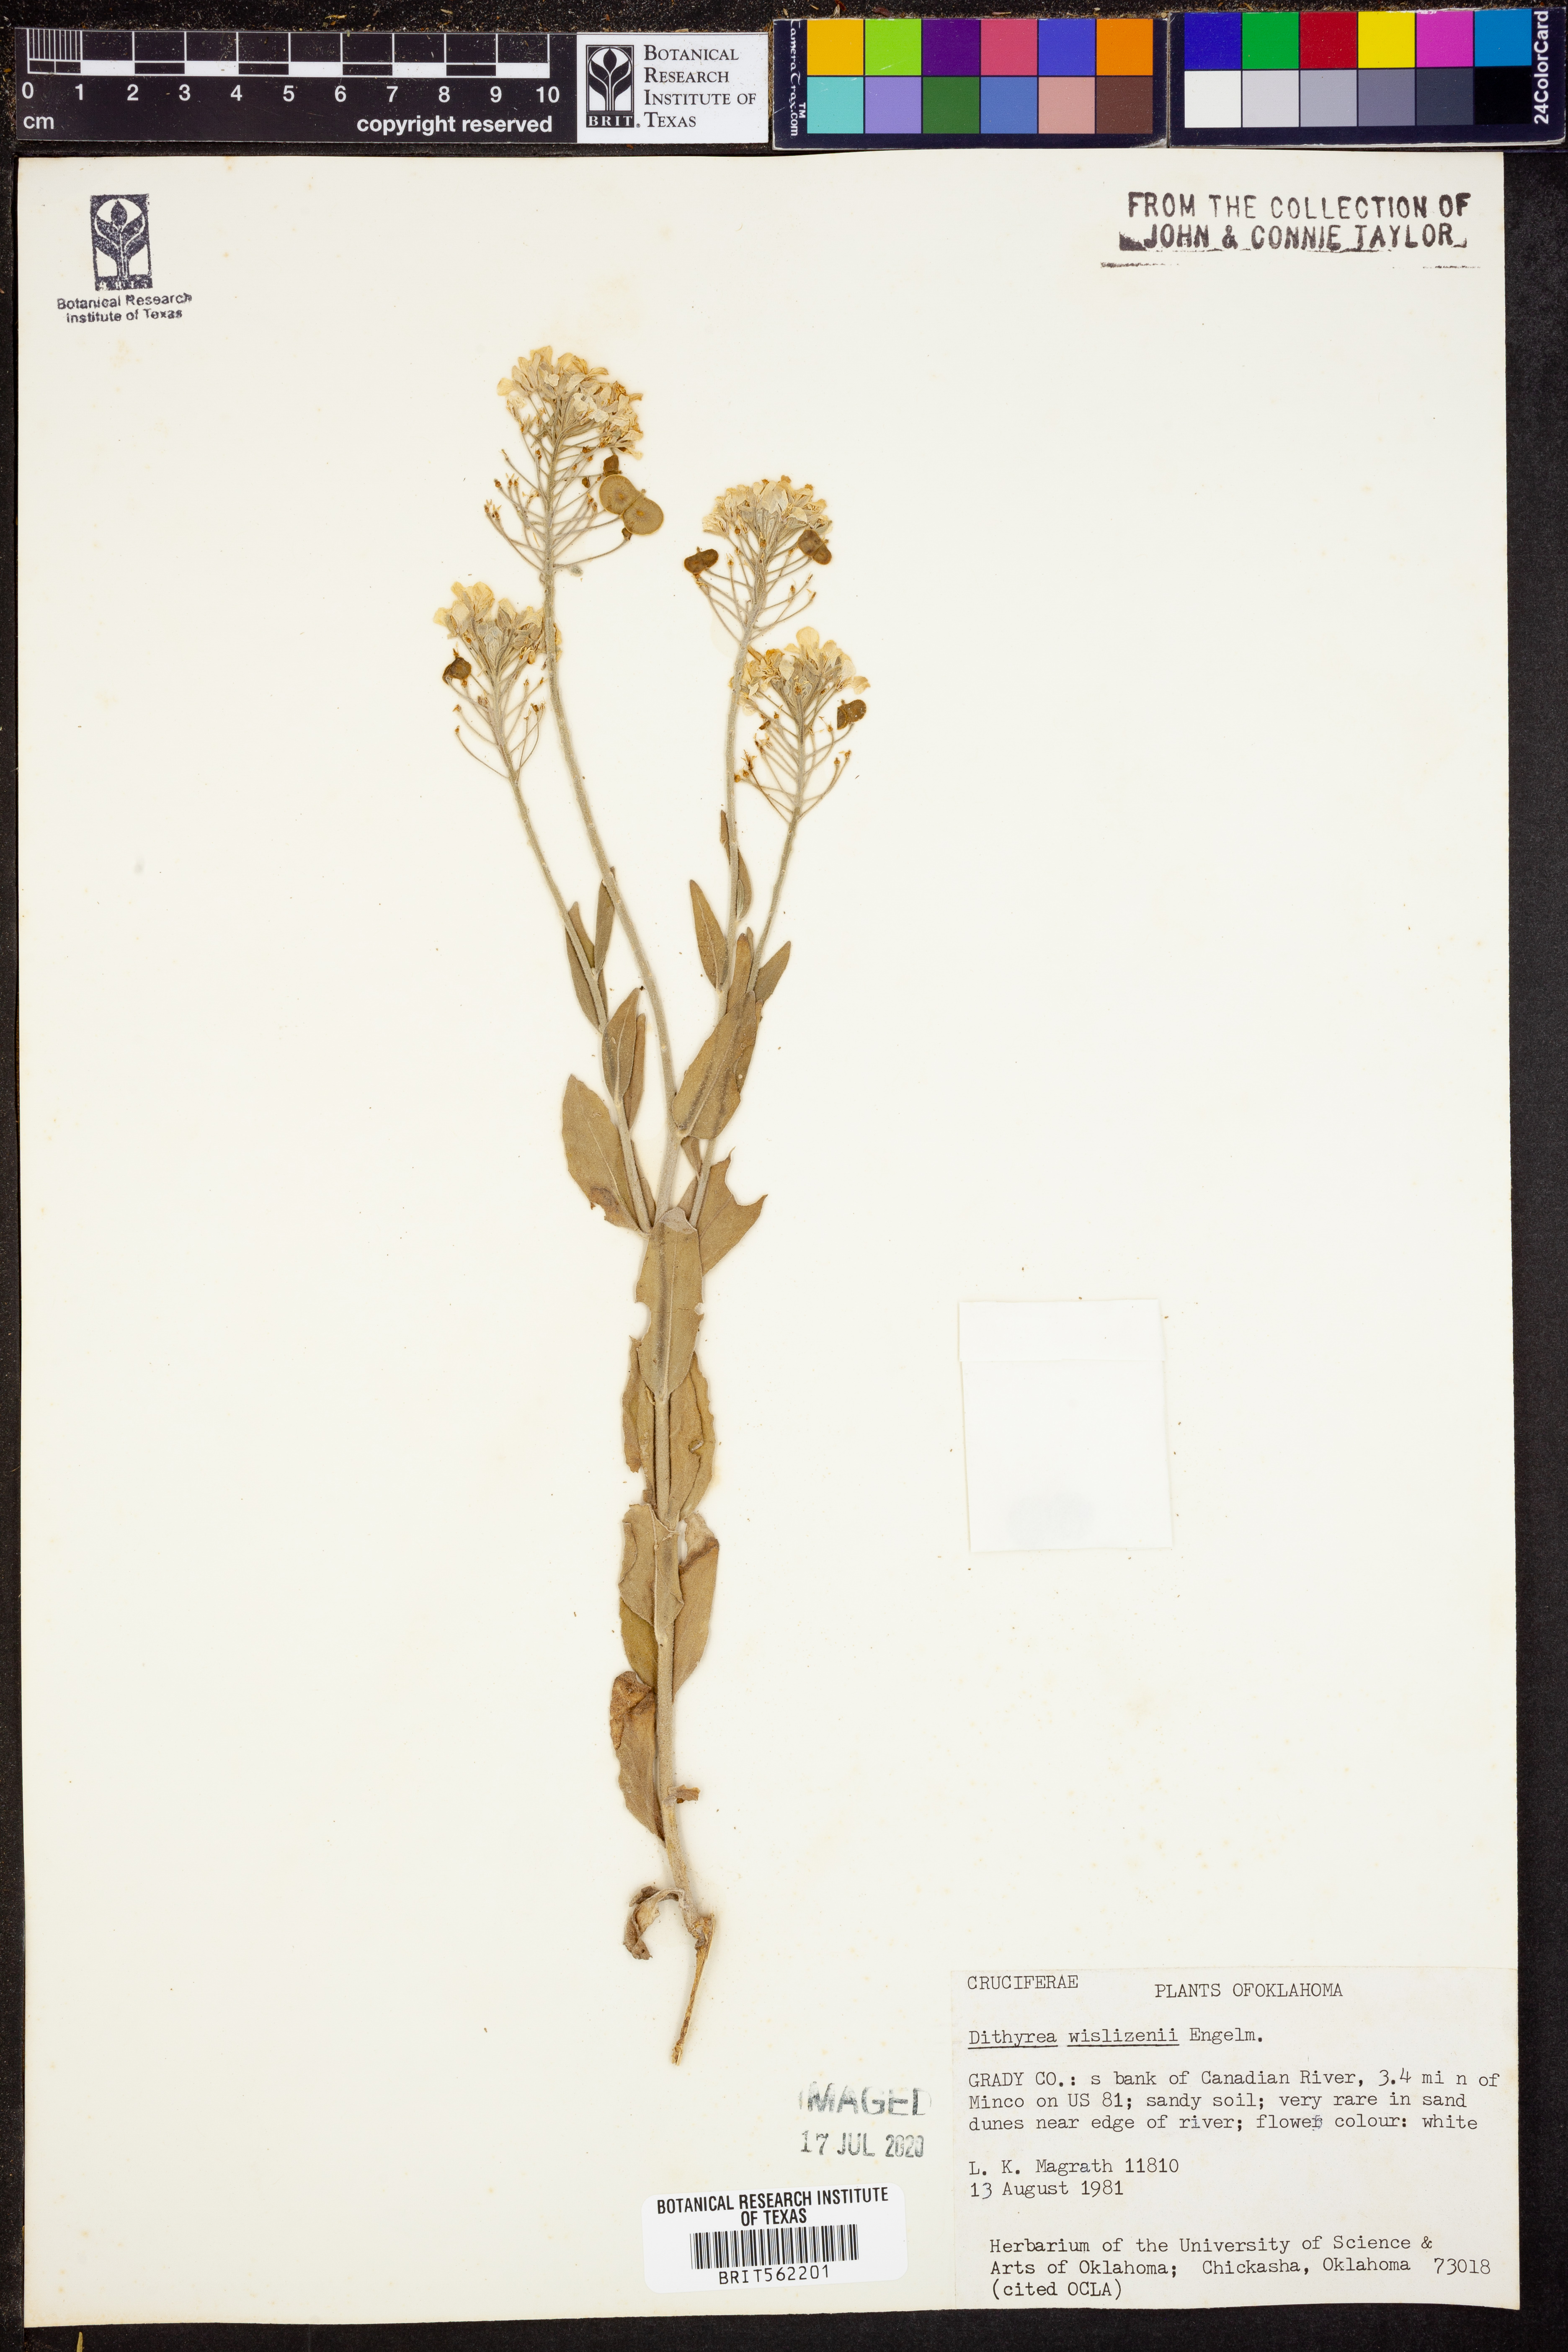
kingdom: Plantae
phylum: Tracheophyta
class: Magnoliopsida
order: Brassicales
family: Brassicaceae
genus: Dimorphocarpa
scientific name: Dimorphocarpa wislizenii
